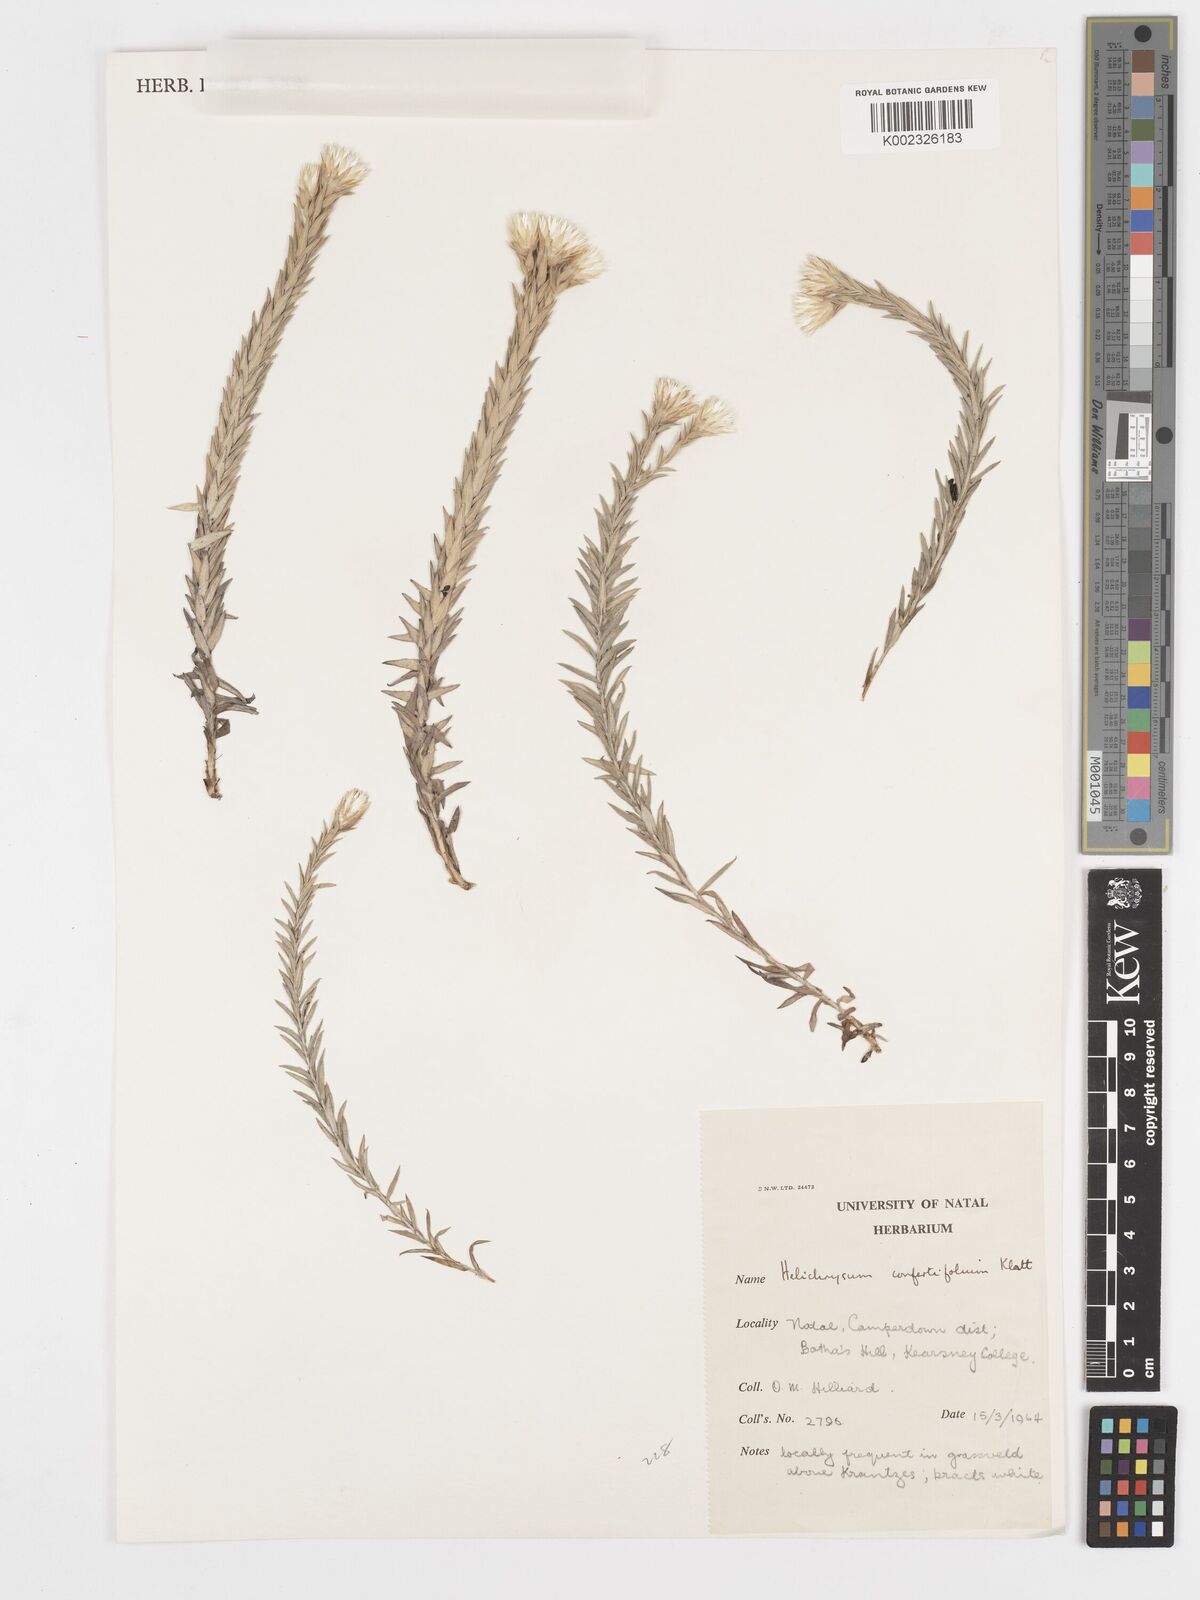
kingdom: Plantae
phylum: Tracheophyta
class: Magnoliopsida
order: Asterales
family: Asteraceae
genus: Helichrysum
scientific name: Helichrysum confertifolium
